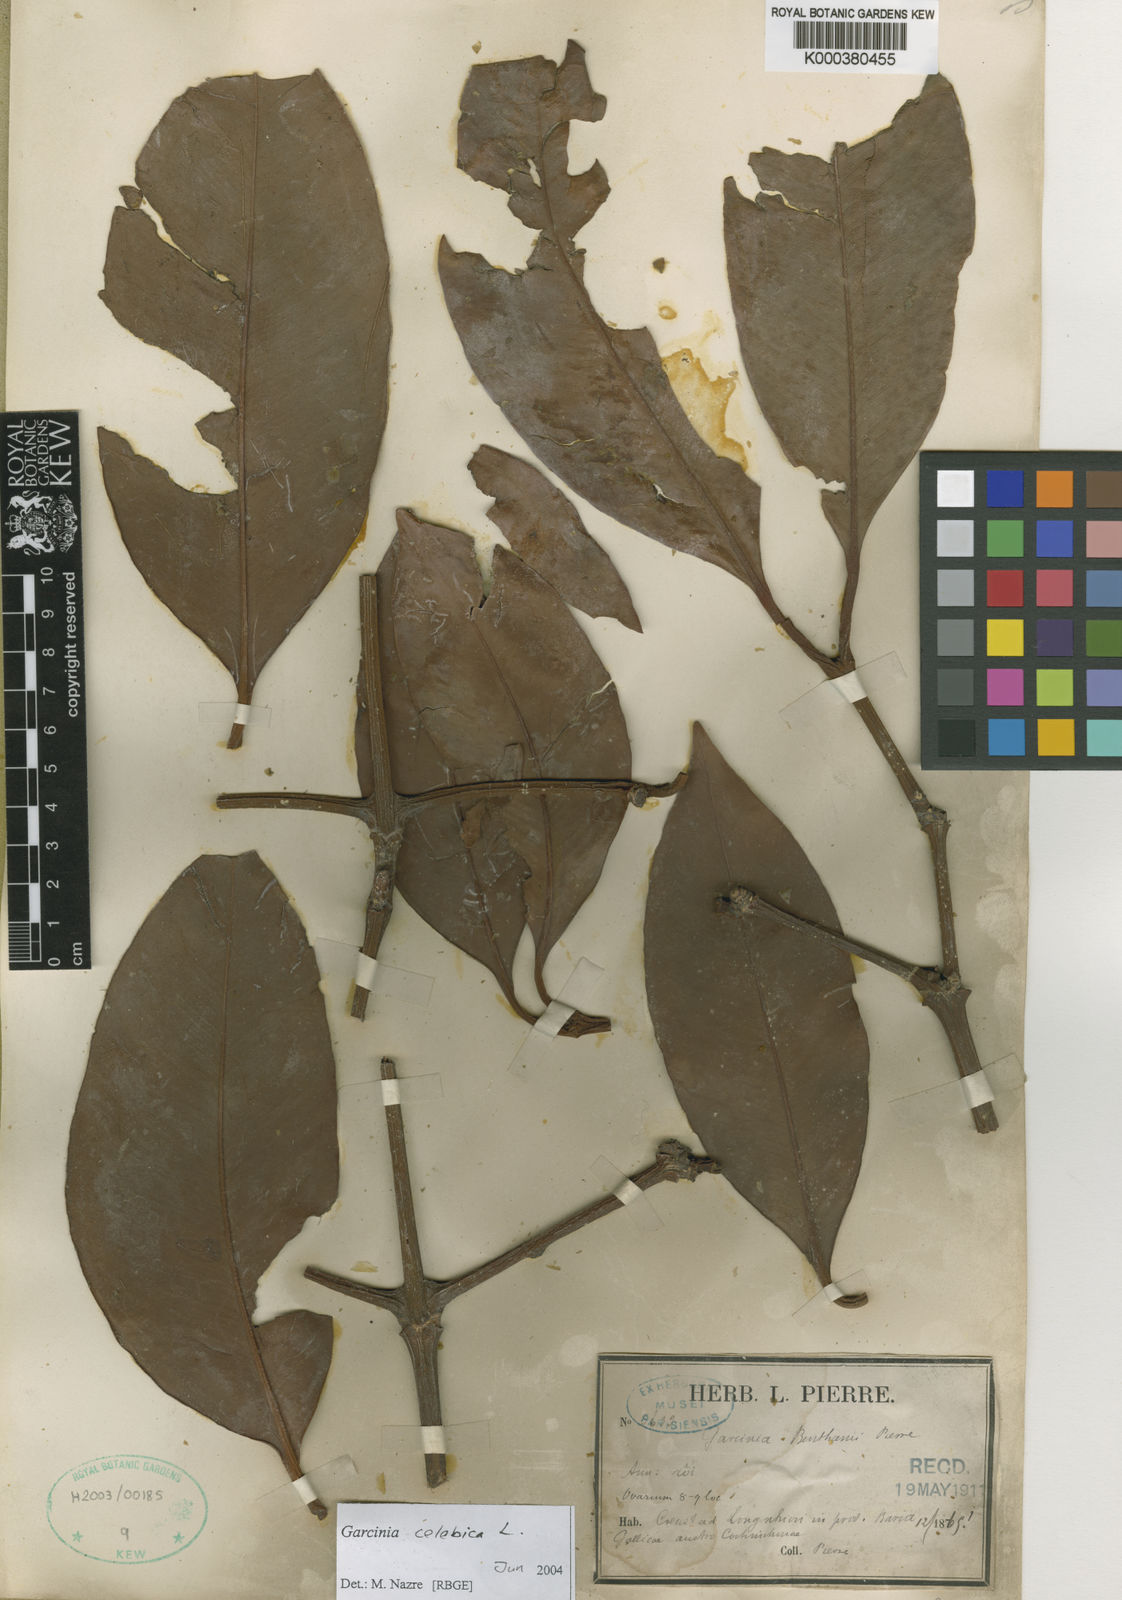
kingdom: Plantae
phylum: Tracheophyta
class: Magnoliopsida
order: Malpighiales
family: Clusiaceae
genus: Garcinia
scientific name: Garcinia celebica
